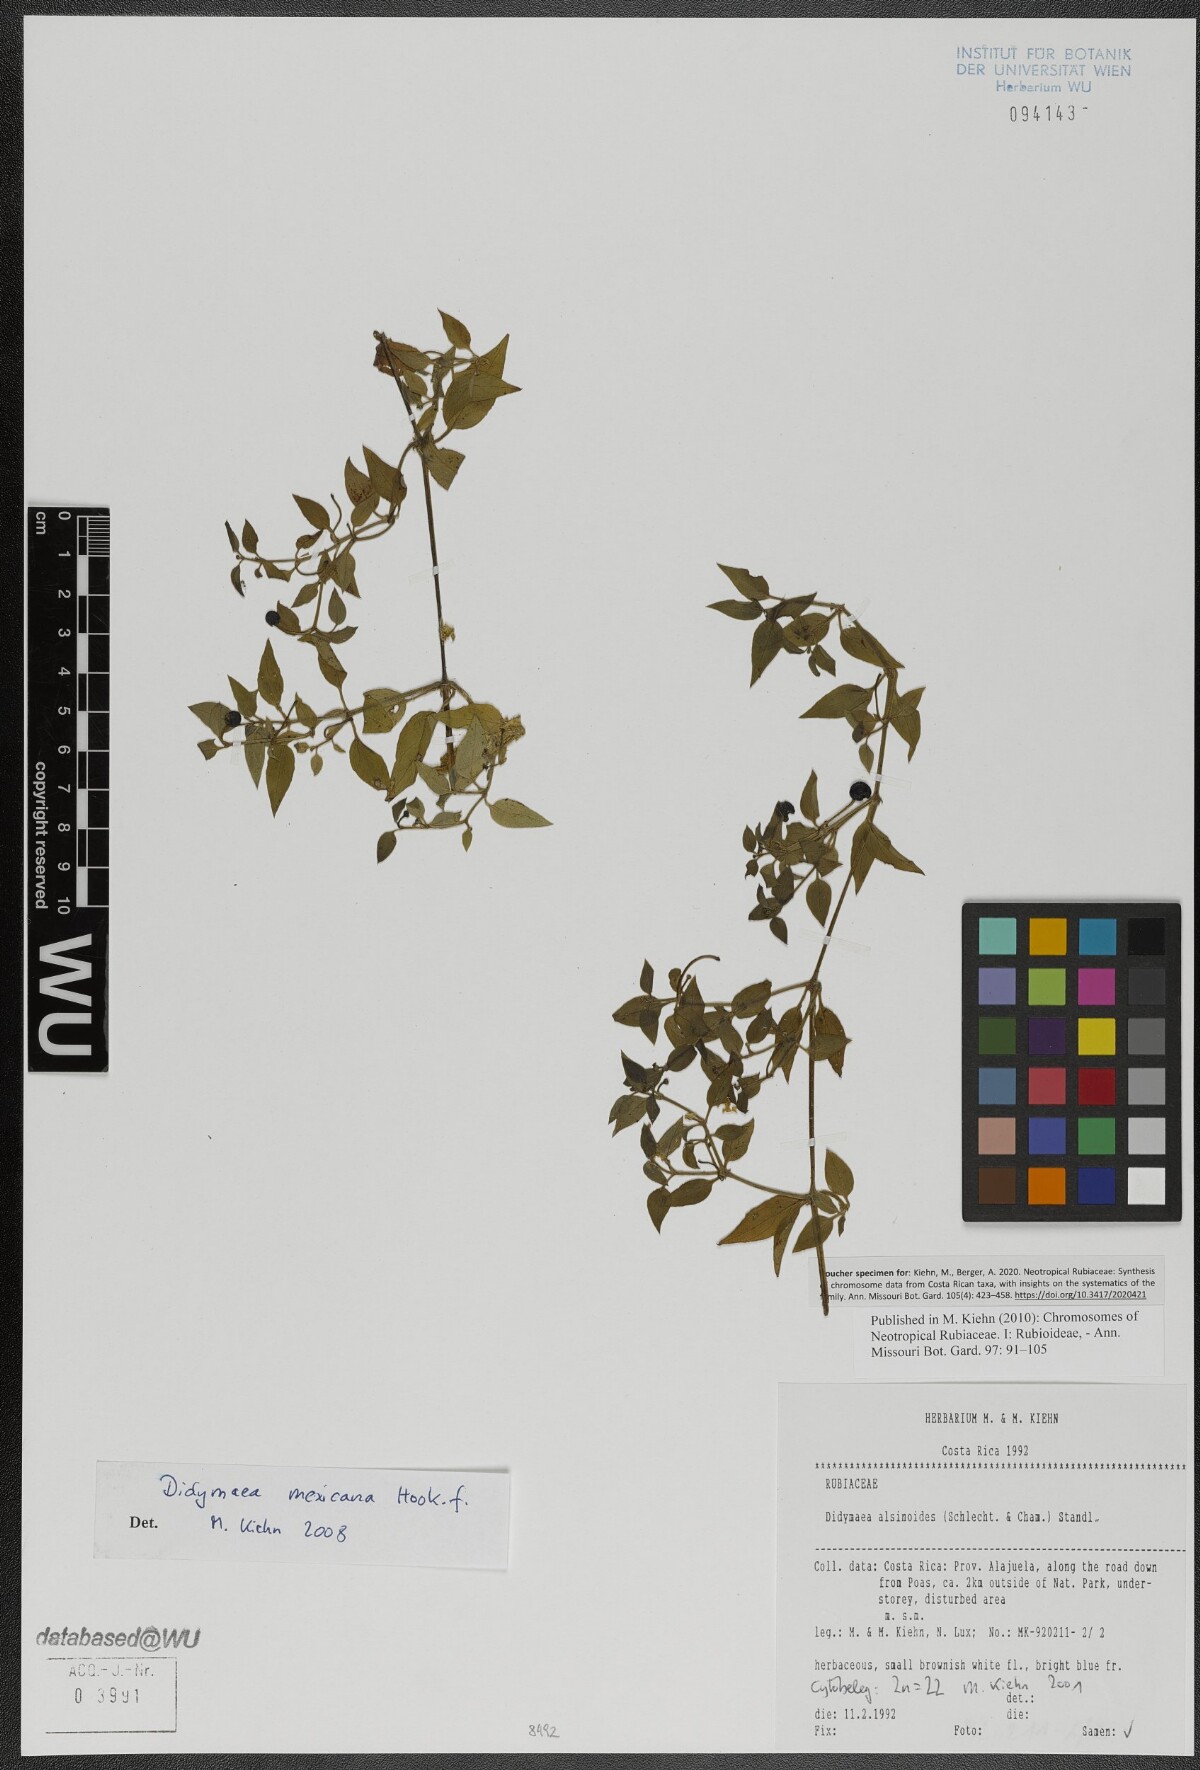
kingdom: Plantae
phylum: Tracheophyta
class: Magnoliopsida
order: Gentianales
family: Rubiaceae
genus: Didymaea
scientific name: Didymaea mexicana
